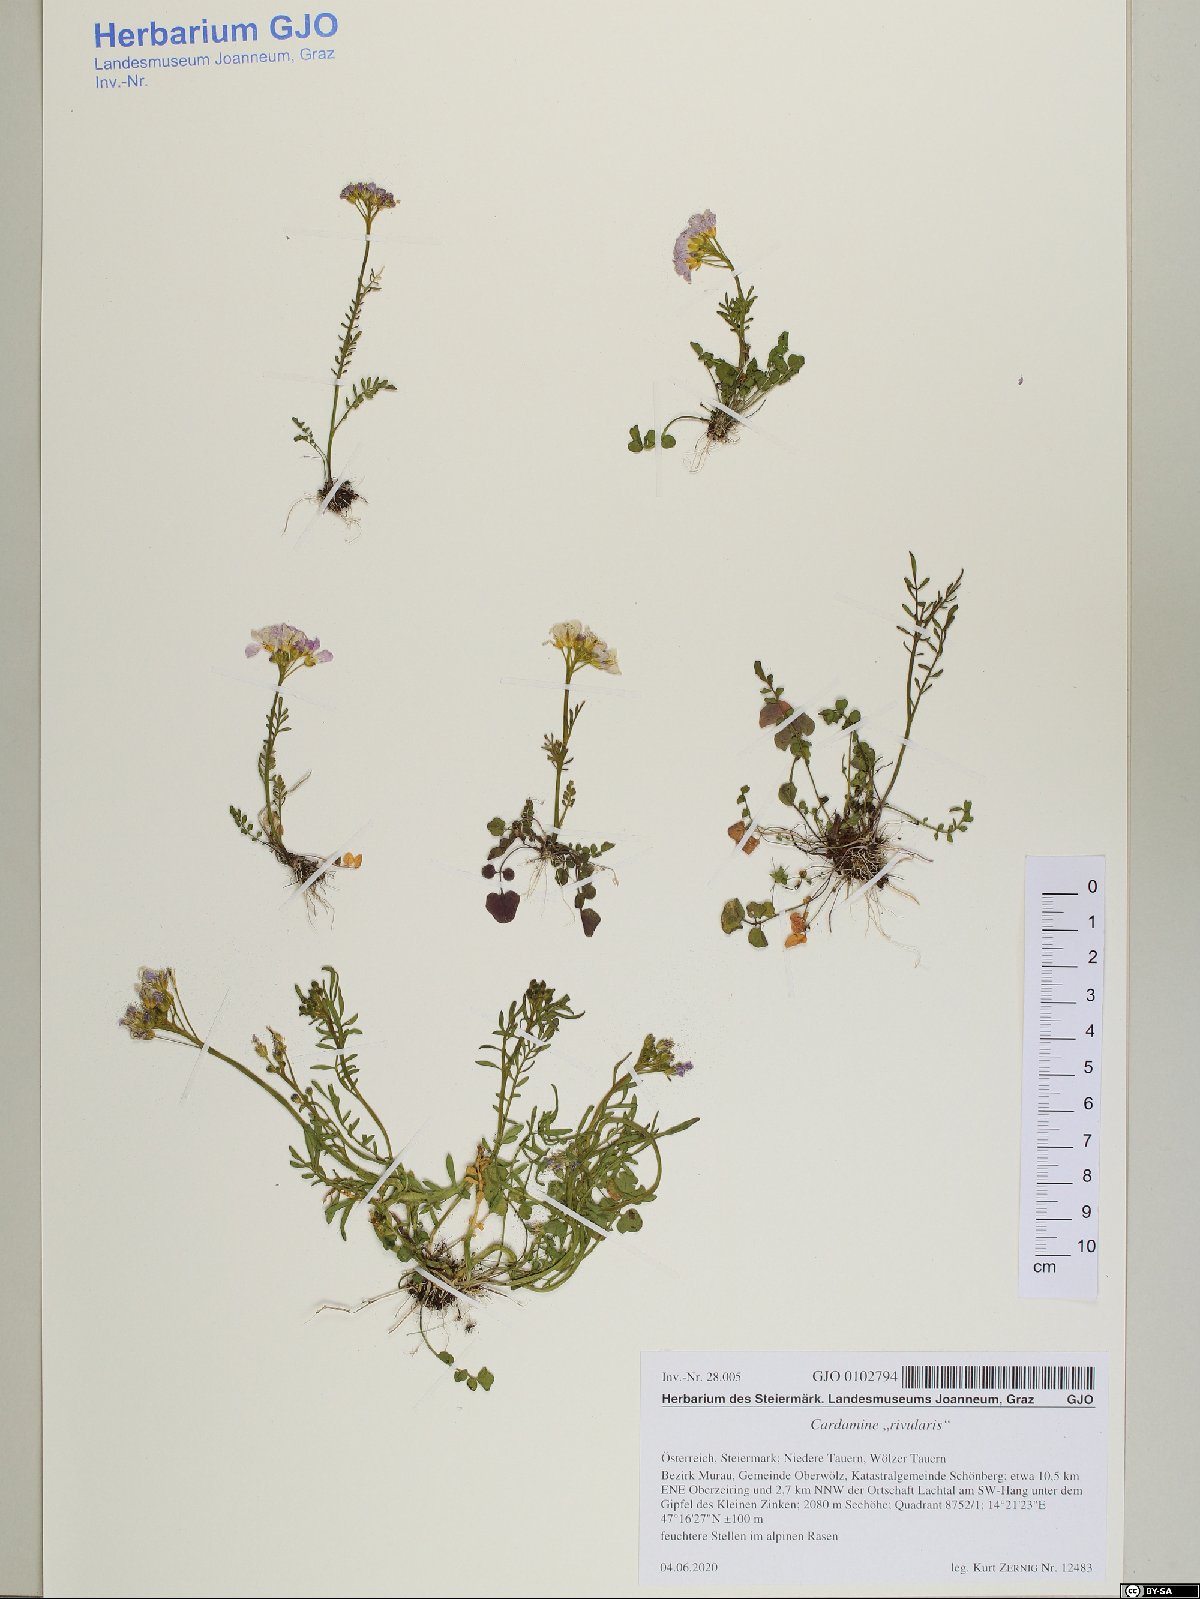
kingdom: Plantae
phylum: Tracheophyta
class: Magnoliopsida
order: Brassicales
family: Brassicaceae
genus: Cardamine
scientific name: Cardamine pratensis
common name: Cuckoo flower
